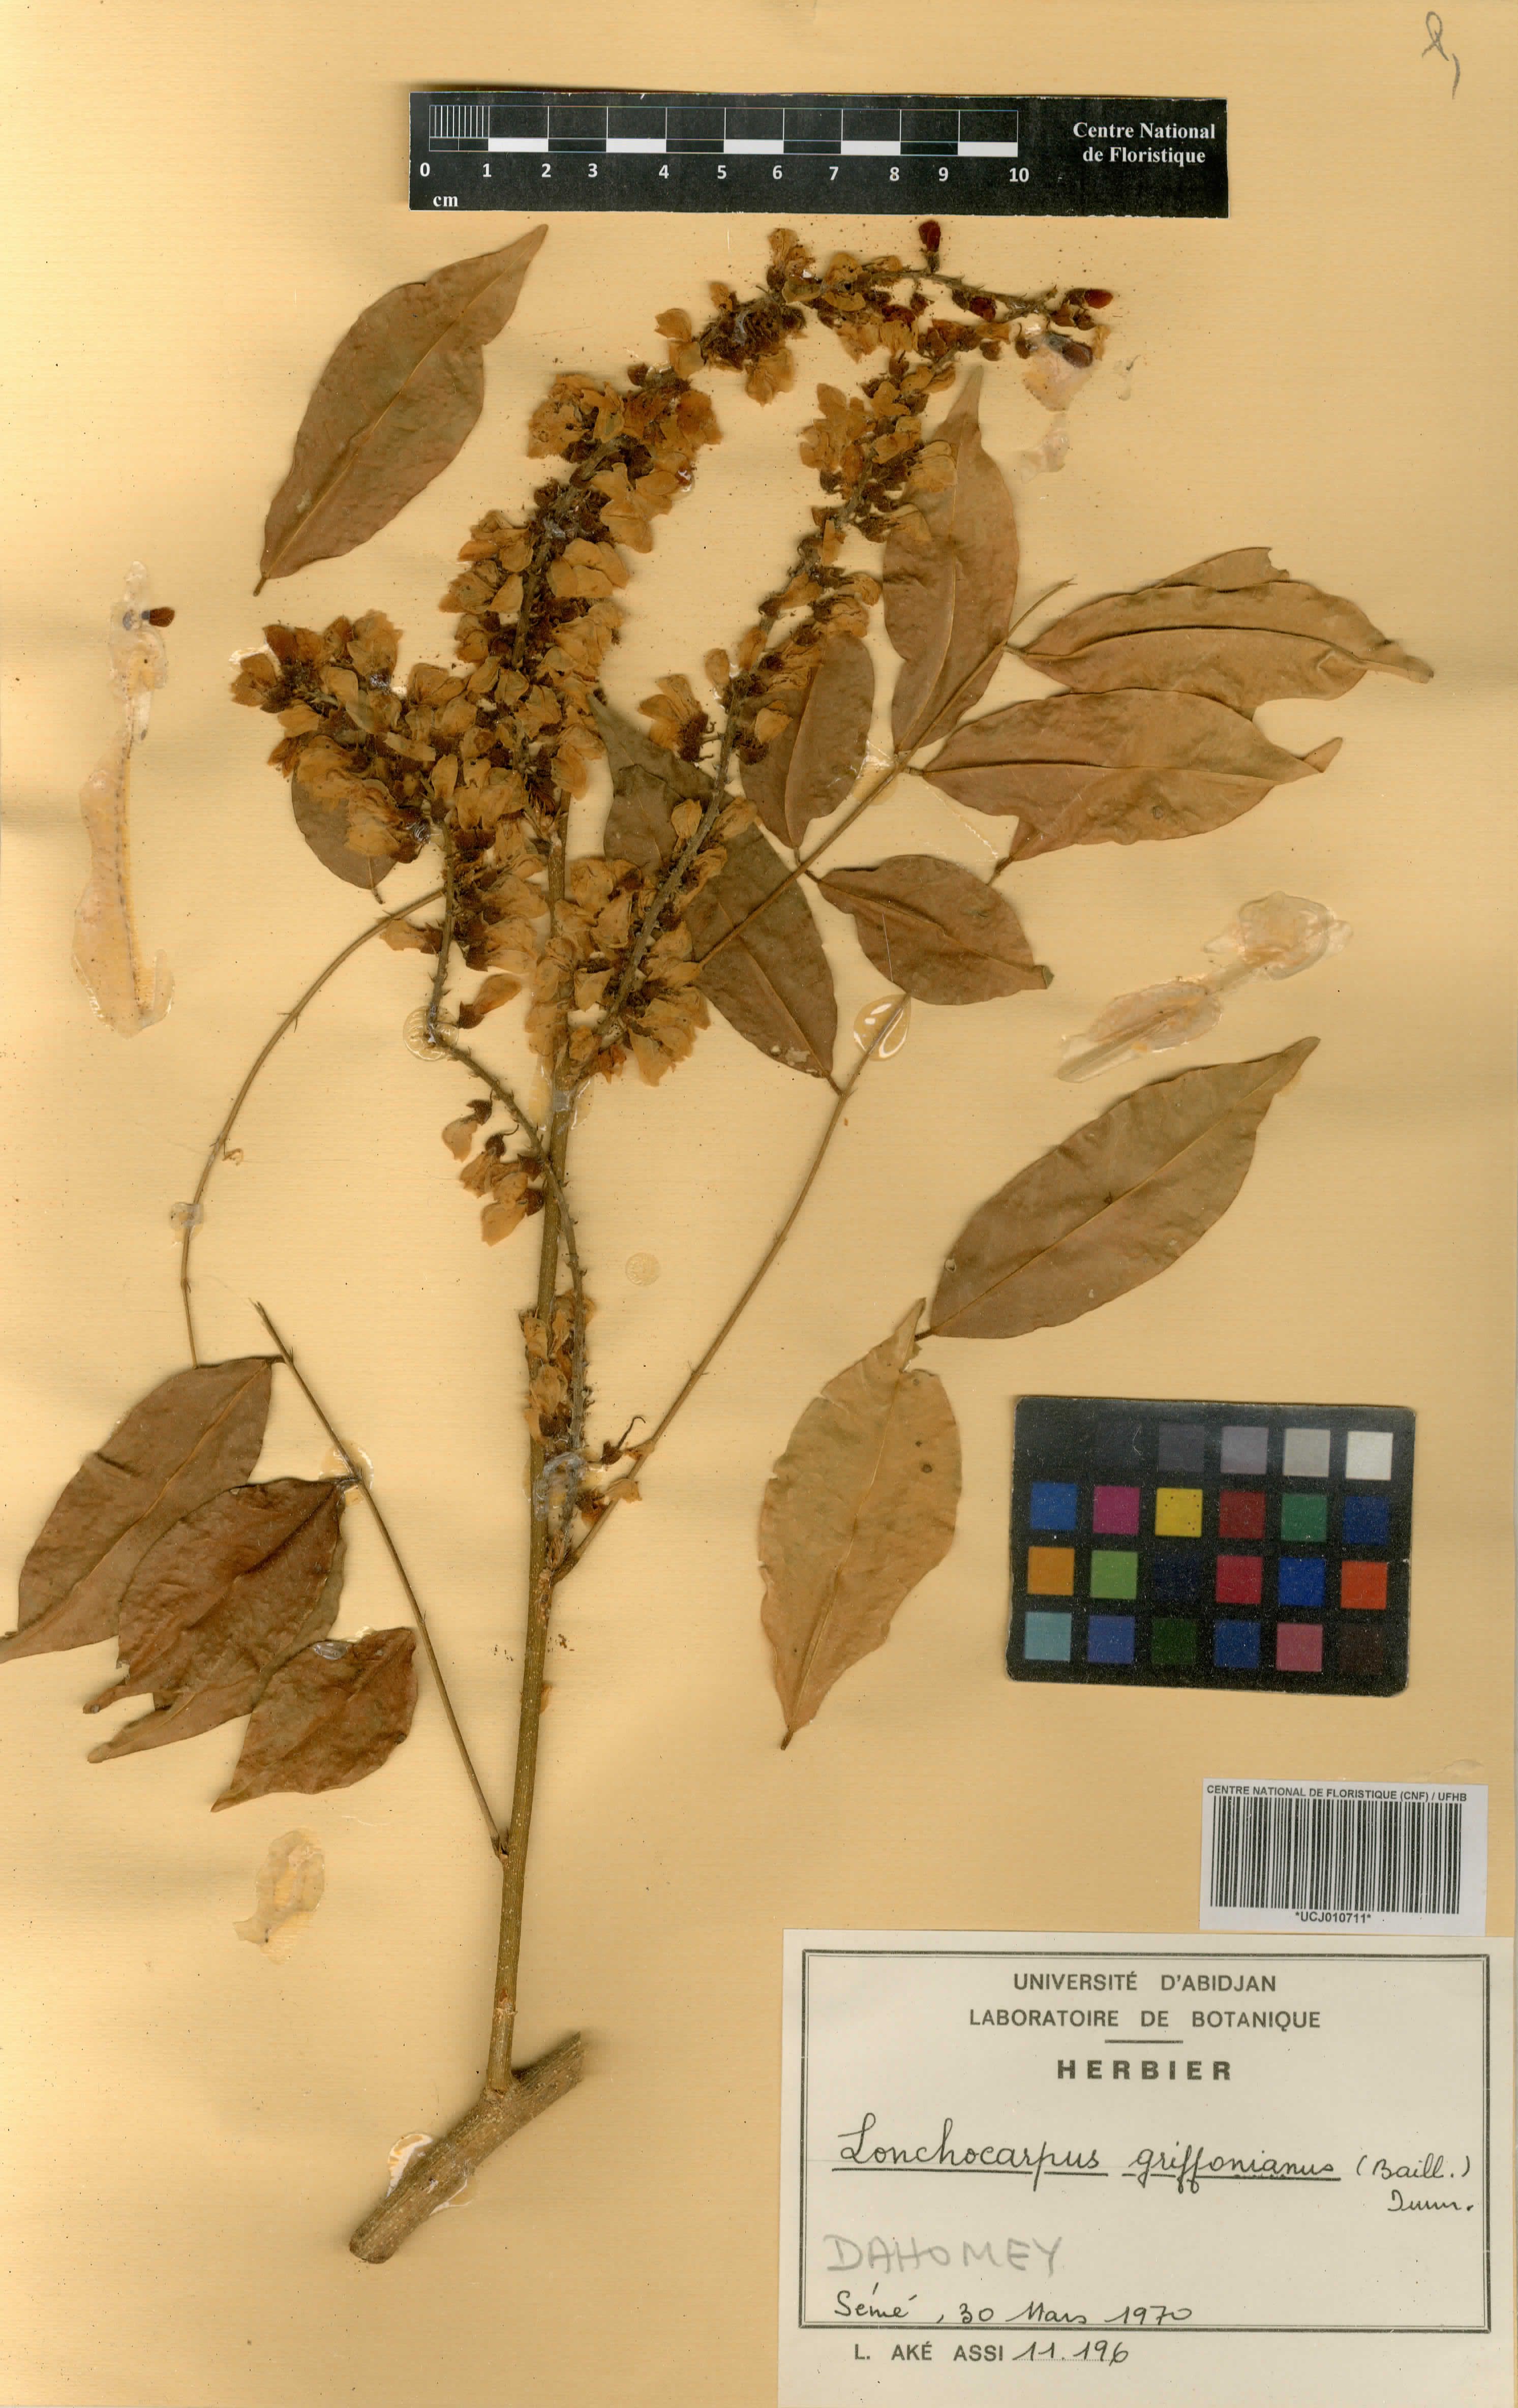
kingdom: Plantae
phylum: Tracheophyta
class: Magnoliopsida
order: Fabales
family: Fabaceae
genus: Millettia
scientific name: Millettia griffoniana
